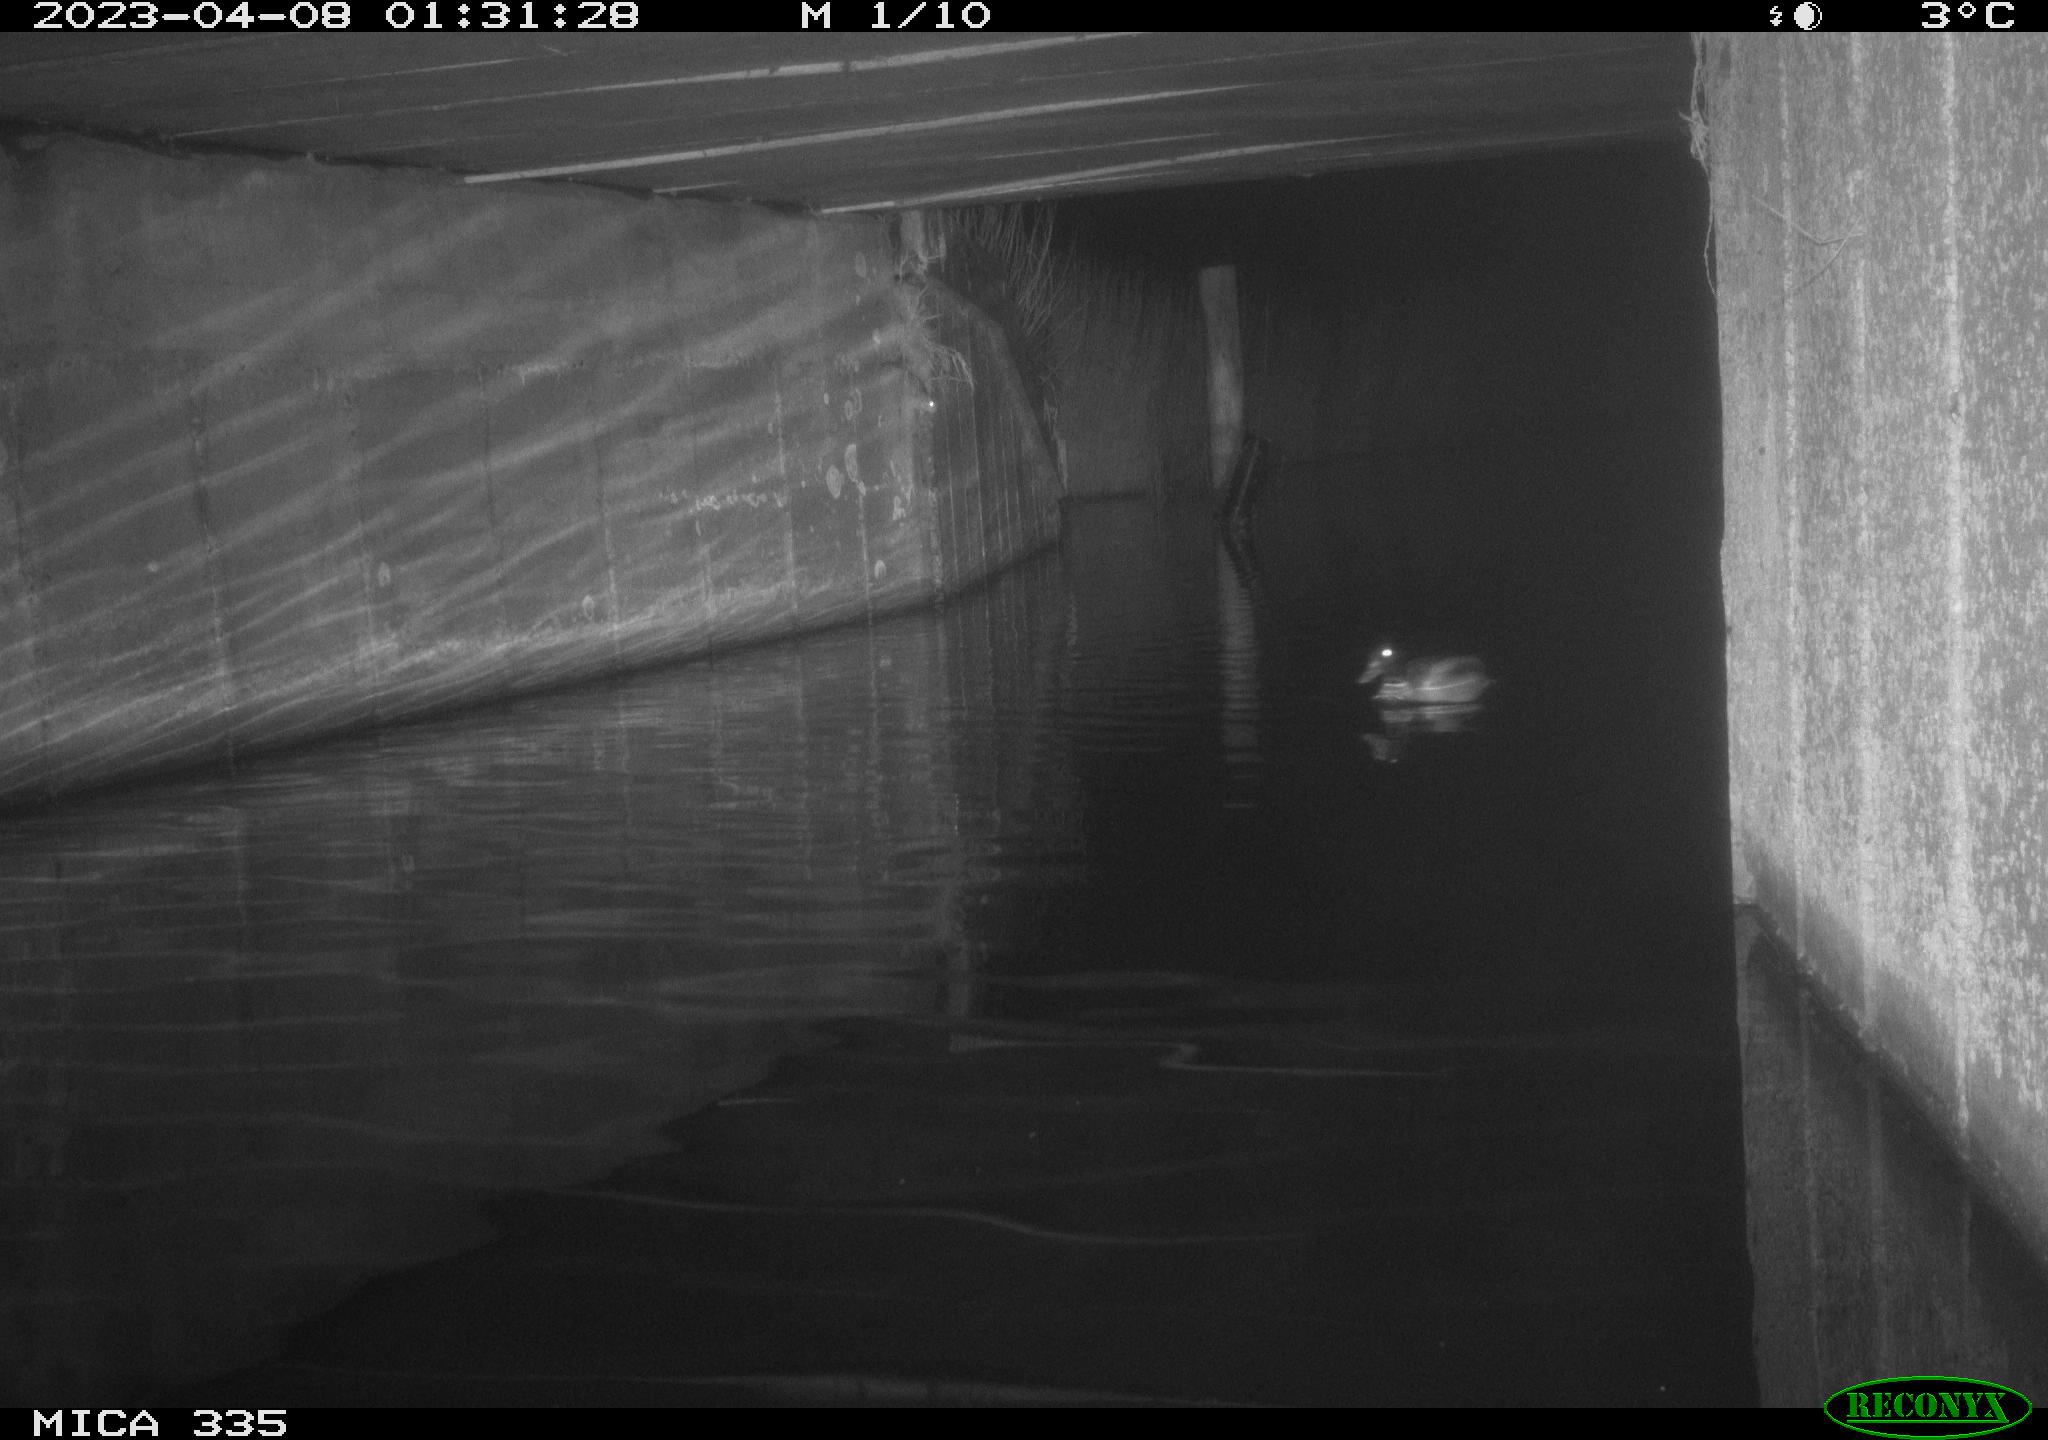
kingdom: Animalia
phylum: Chordata
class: Aves
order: Anseriformes
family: Anatidae
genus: Anas
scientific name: Anas
